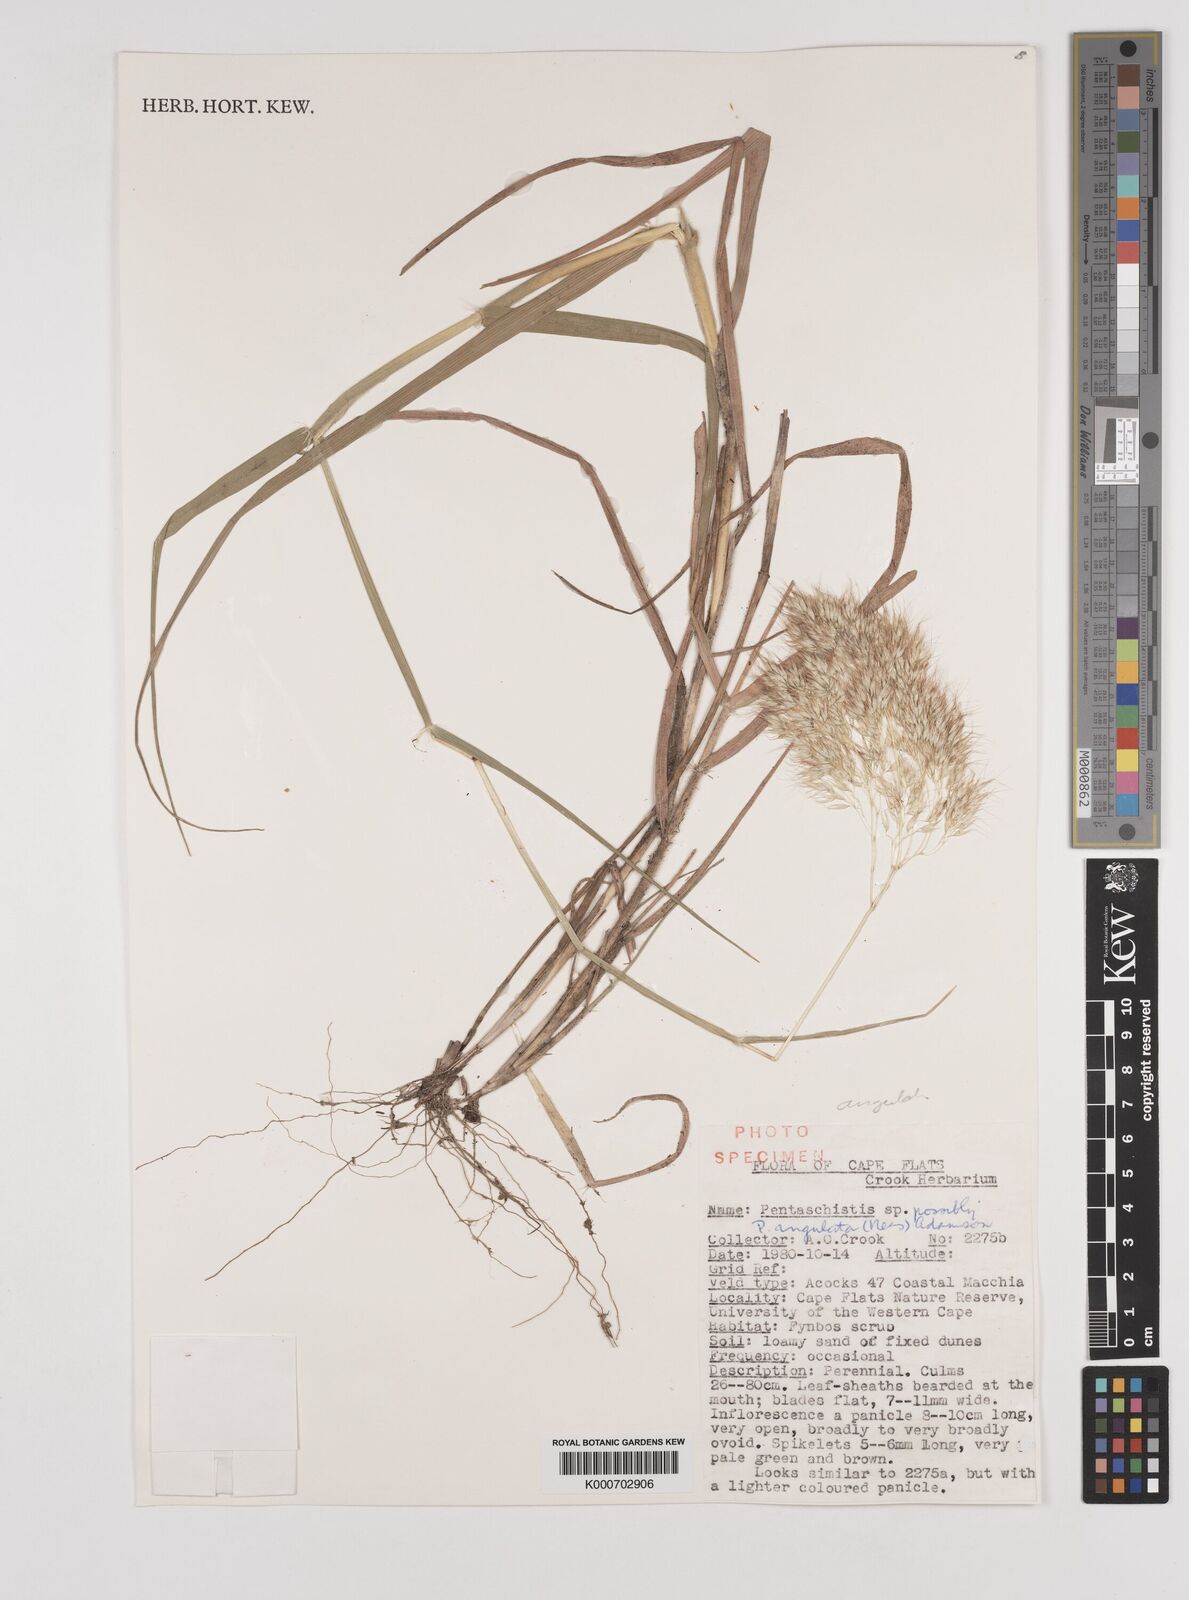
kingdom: Plantae
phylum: Tracheophyta
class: Liliopsida
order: Poales
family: Poaceae
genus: Pentameris
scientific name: Pentameris barbata
